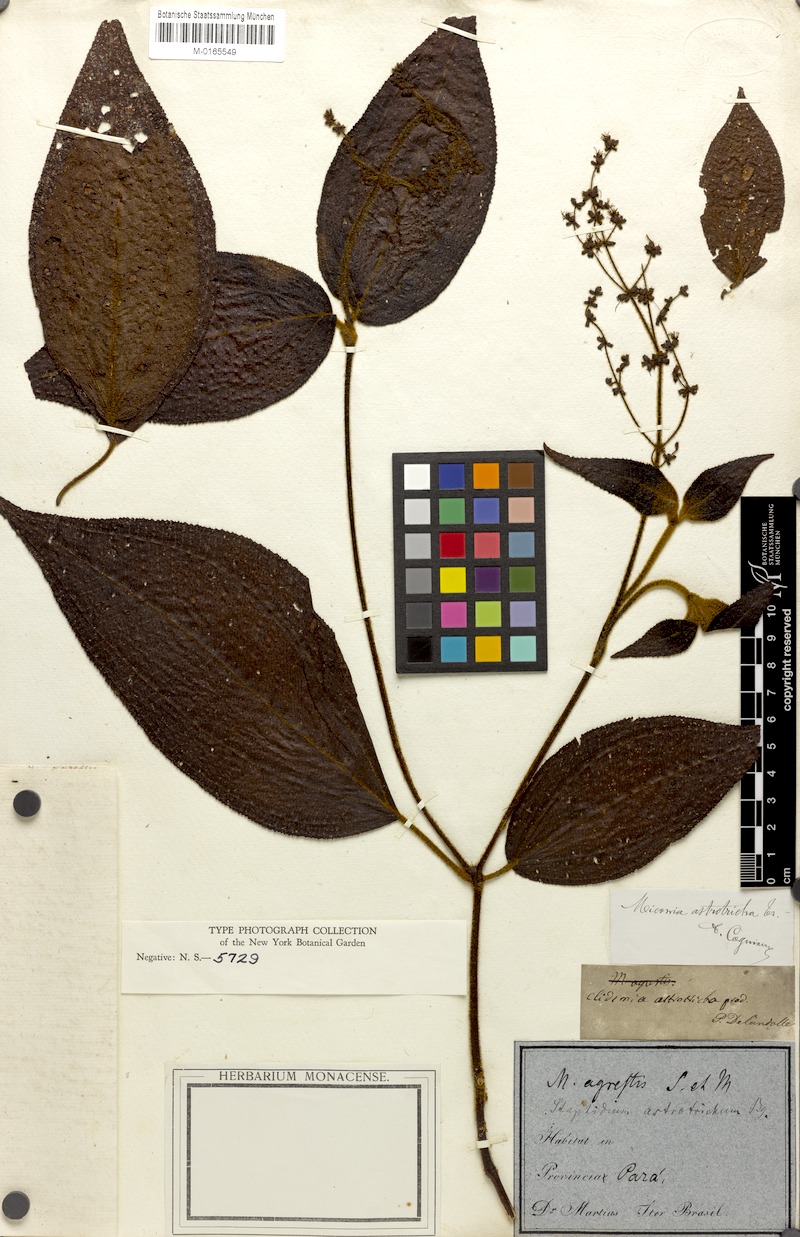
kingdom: Plantae
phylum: Tracheophyta
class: Magnoliopsida
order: Myrtales
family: Melastomataceae
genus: Miconia
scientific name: Miconia astrotricha
